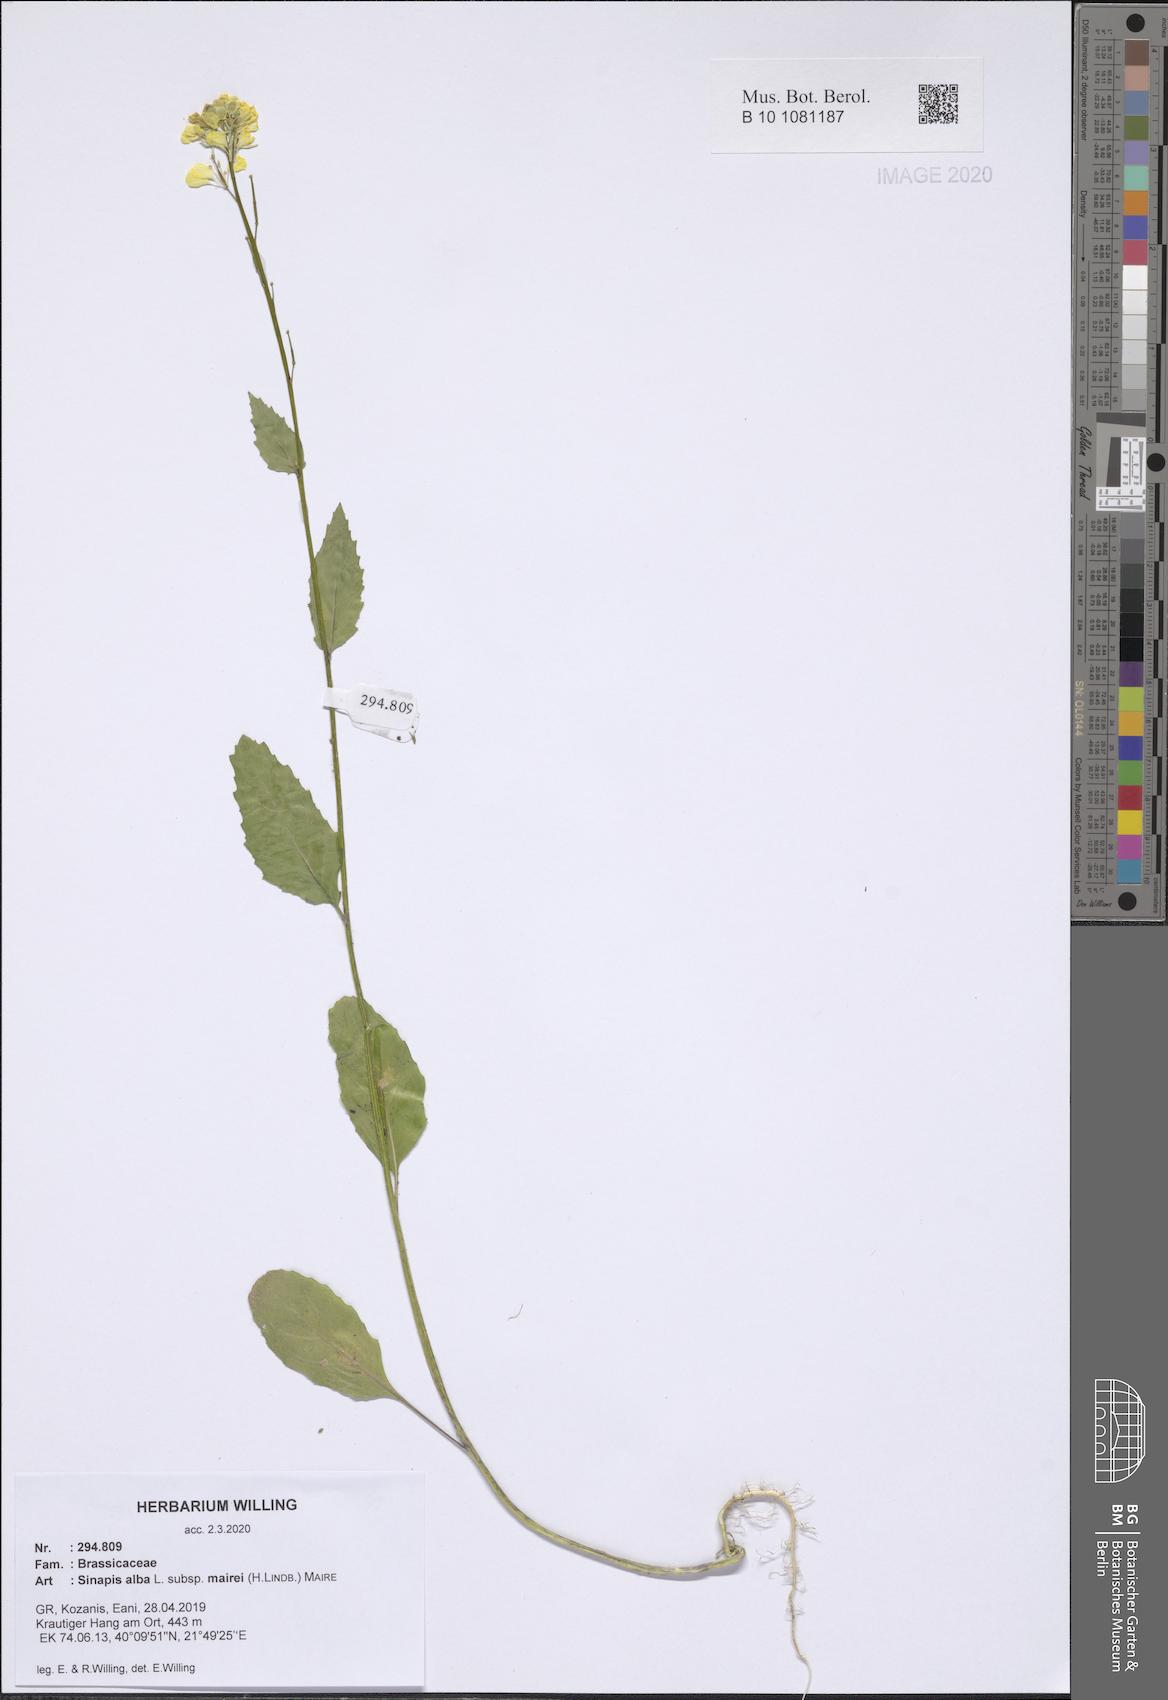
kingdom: Plantae
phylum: Tracheophyta
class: Magnoliopsida
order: Brassicales
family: Brassicaceae
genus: Sinapis
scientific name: Sinapis alba
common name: White mustard
